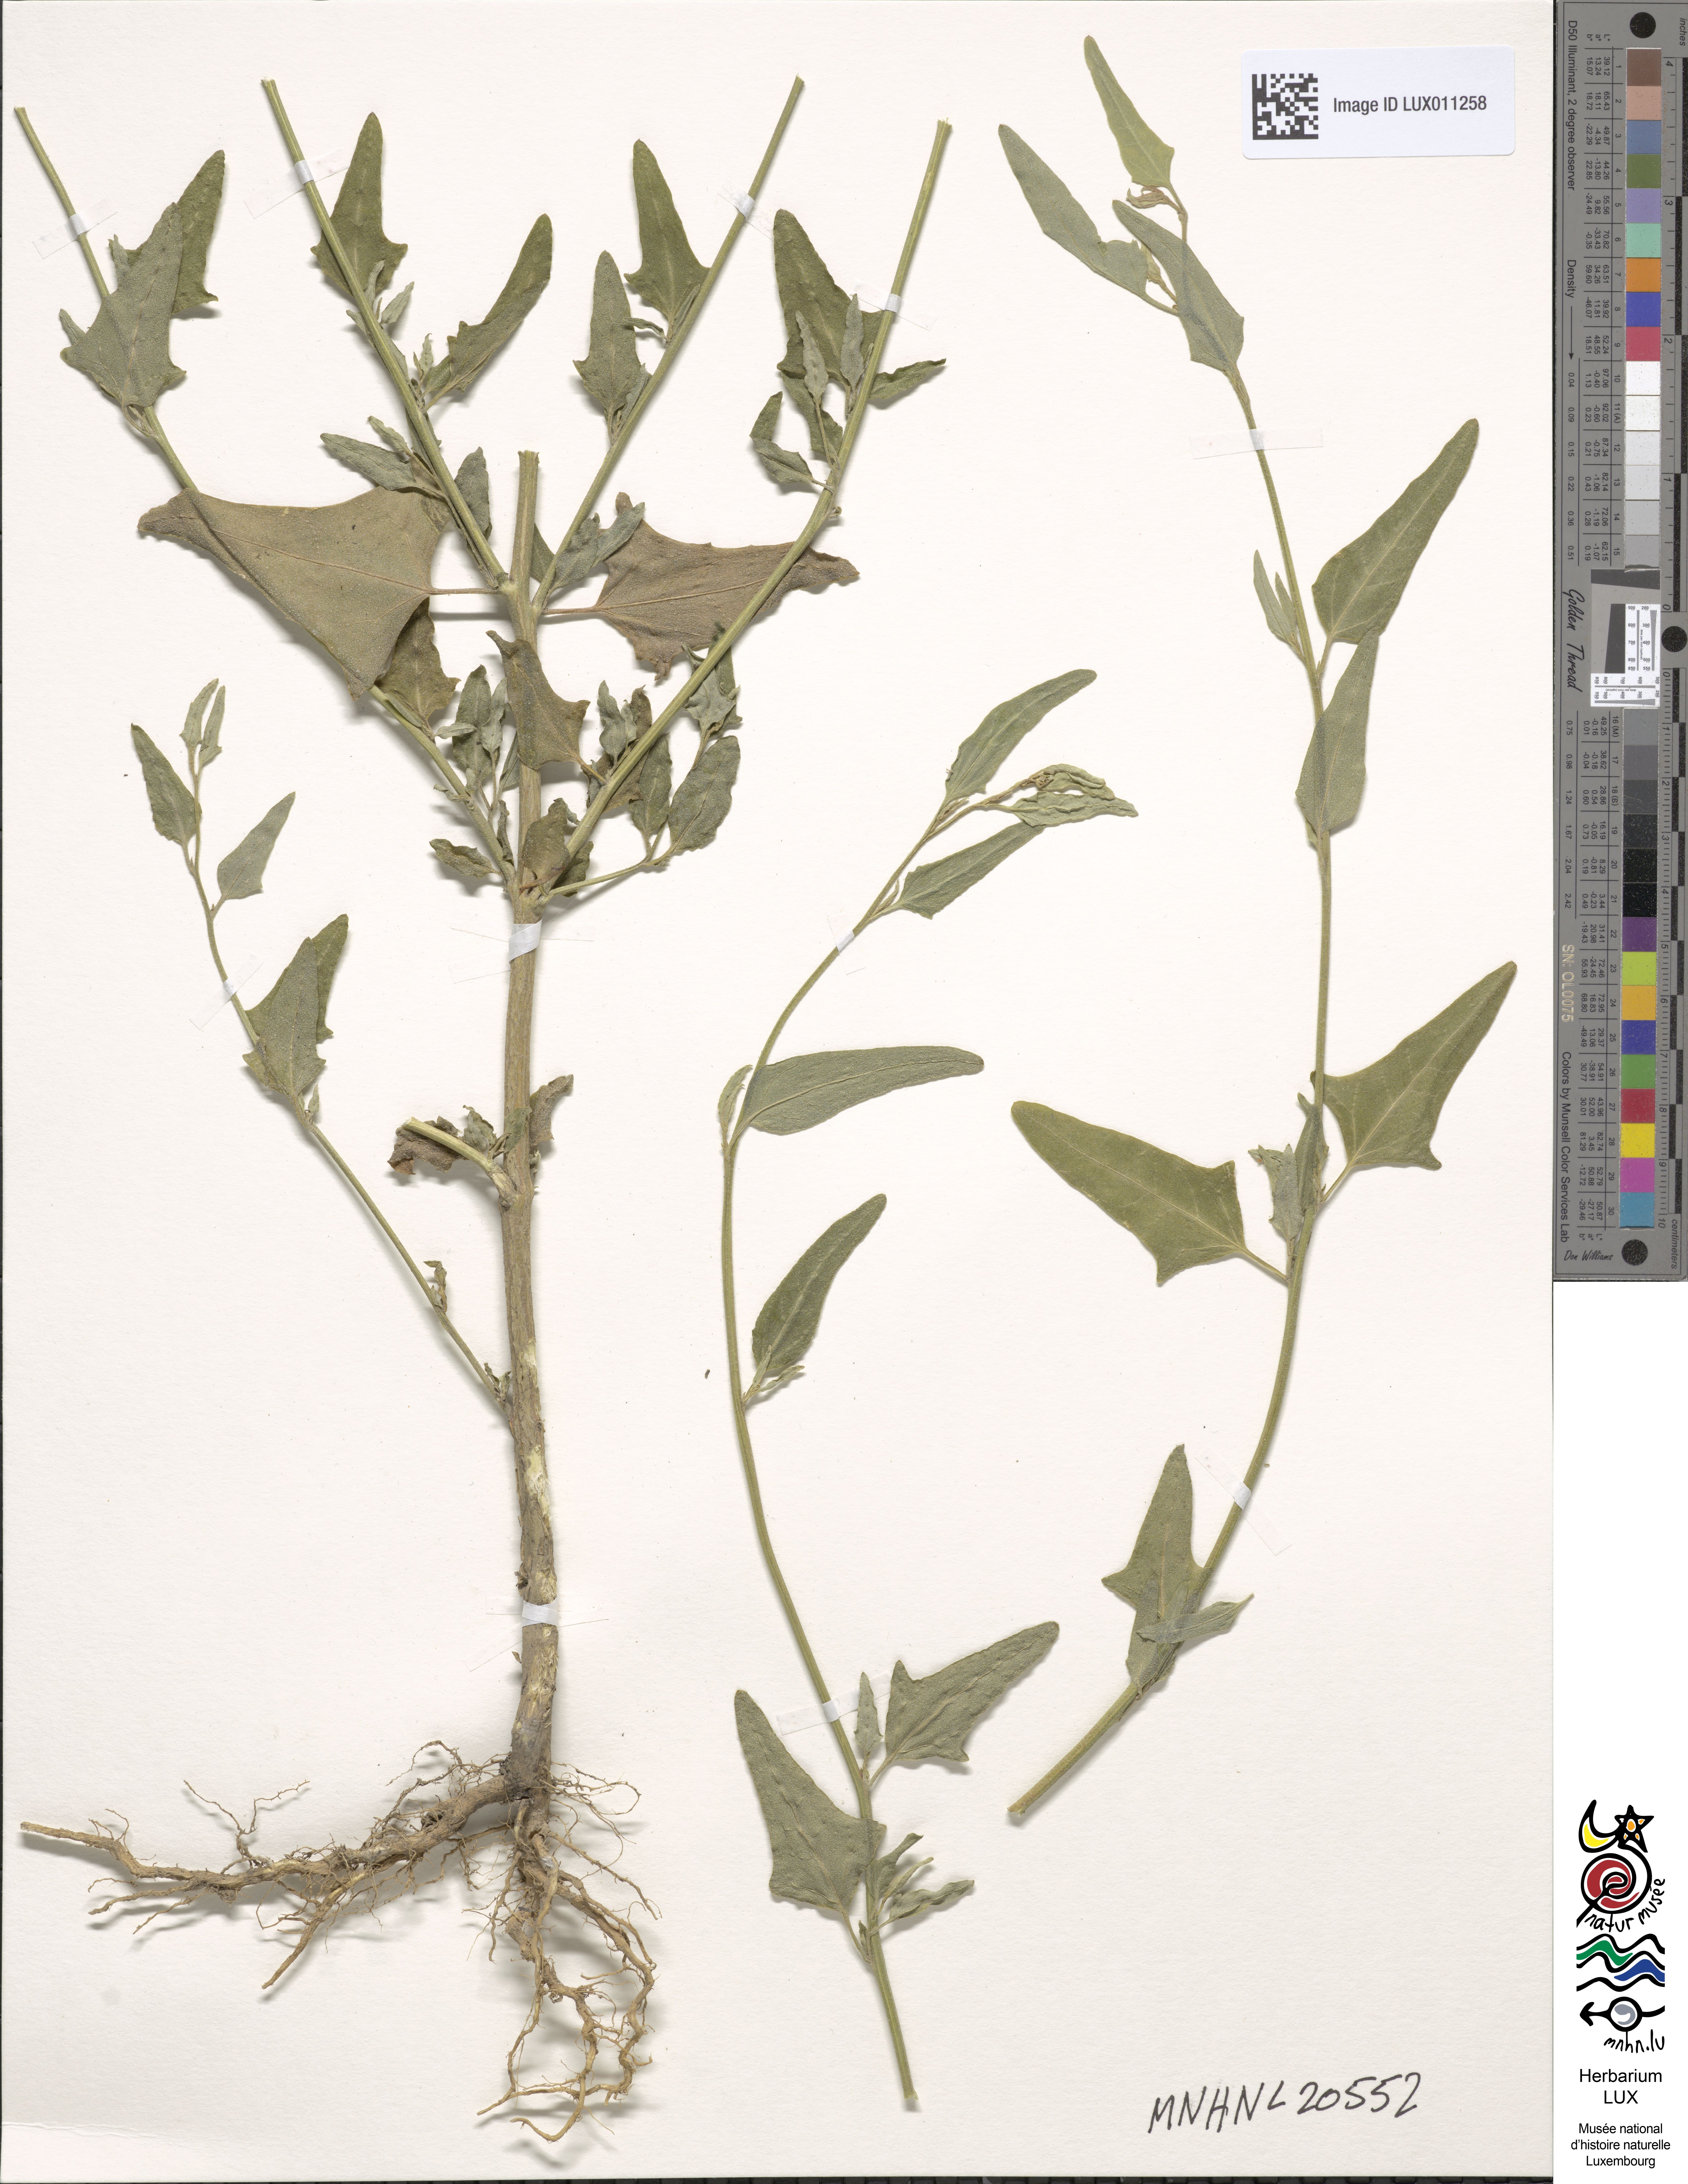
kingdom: Plantae
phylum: Tracheophyta
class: Magnoliopsida
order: Caryophyllales
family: Amaranthaceae
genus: Atriplex
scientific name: Atriplex micrantha
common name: Twoscale saltbush
